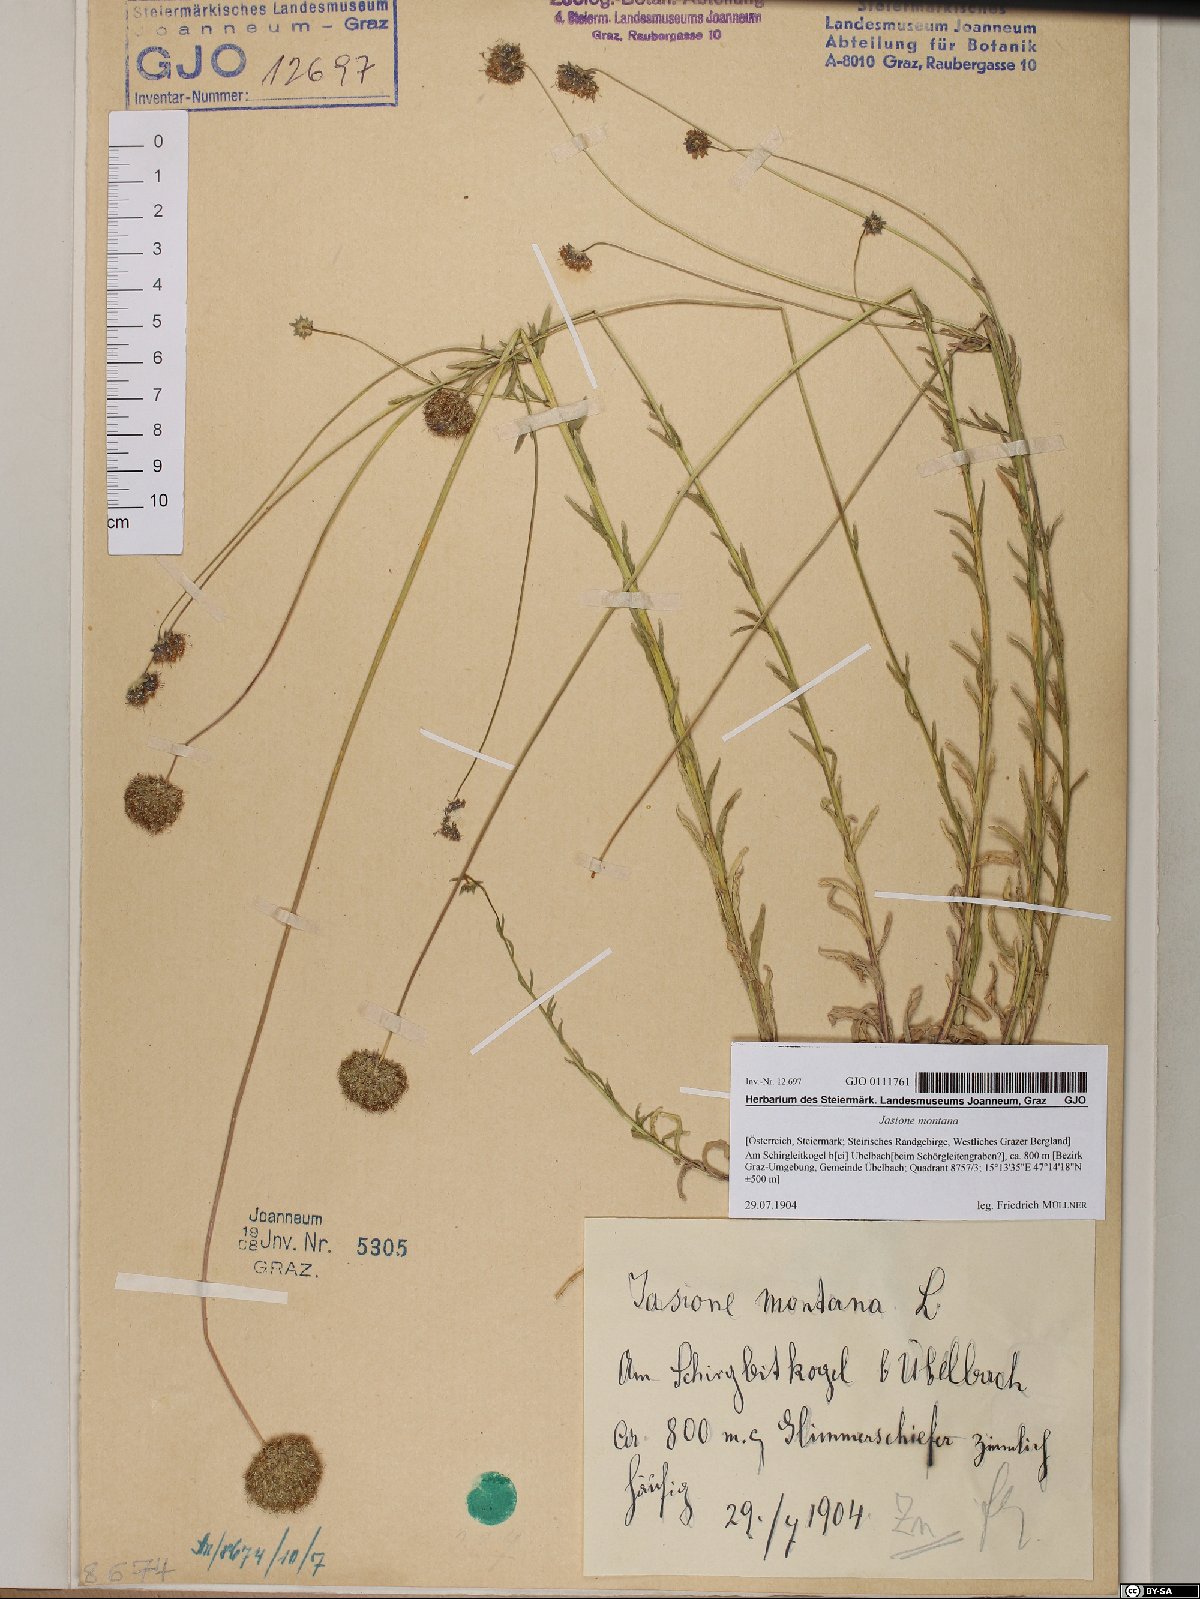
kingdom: Plantae
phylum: Tracheophyta
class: Magnoliopsida
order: Asterales
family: Campanulaceae
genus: Jasione
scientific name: Jasione montana
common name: Sheep's-bit
